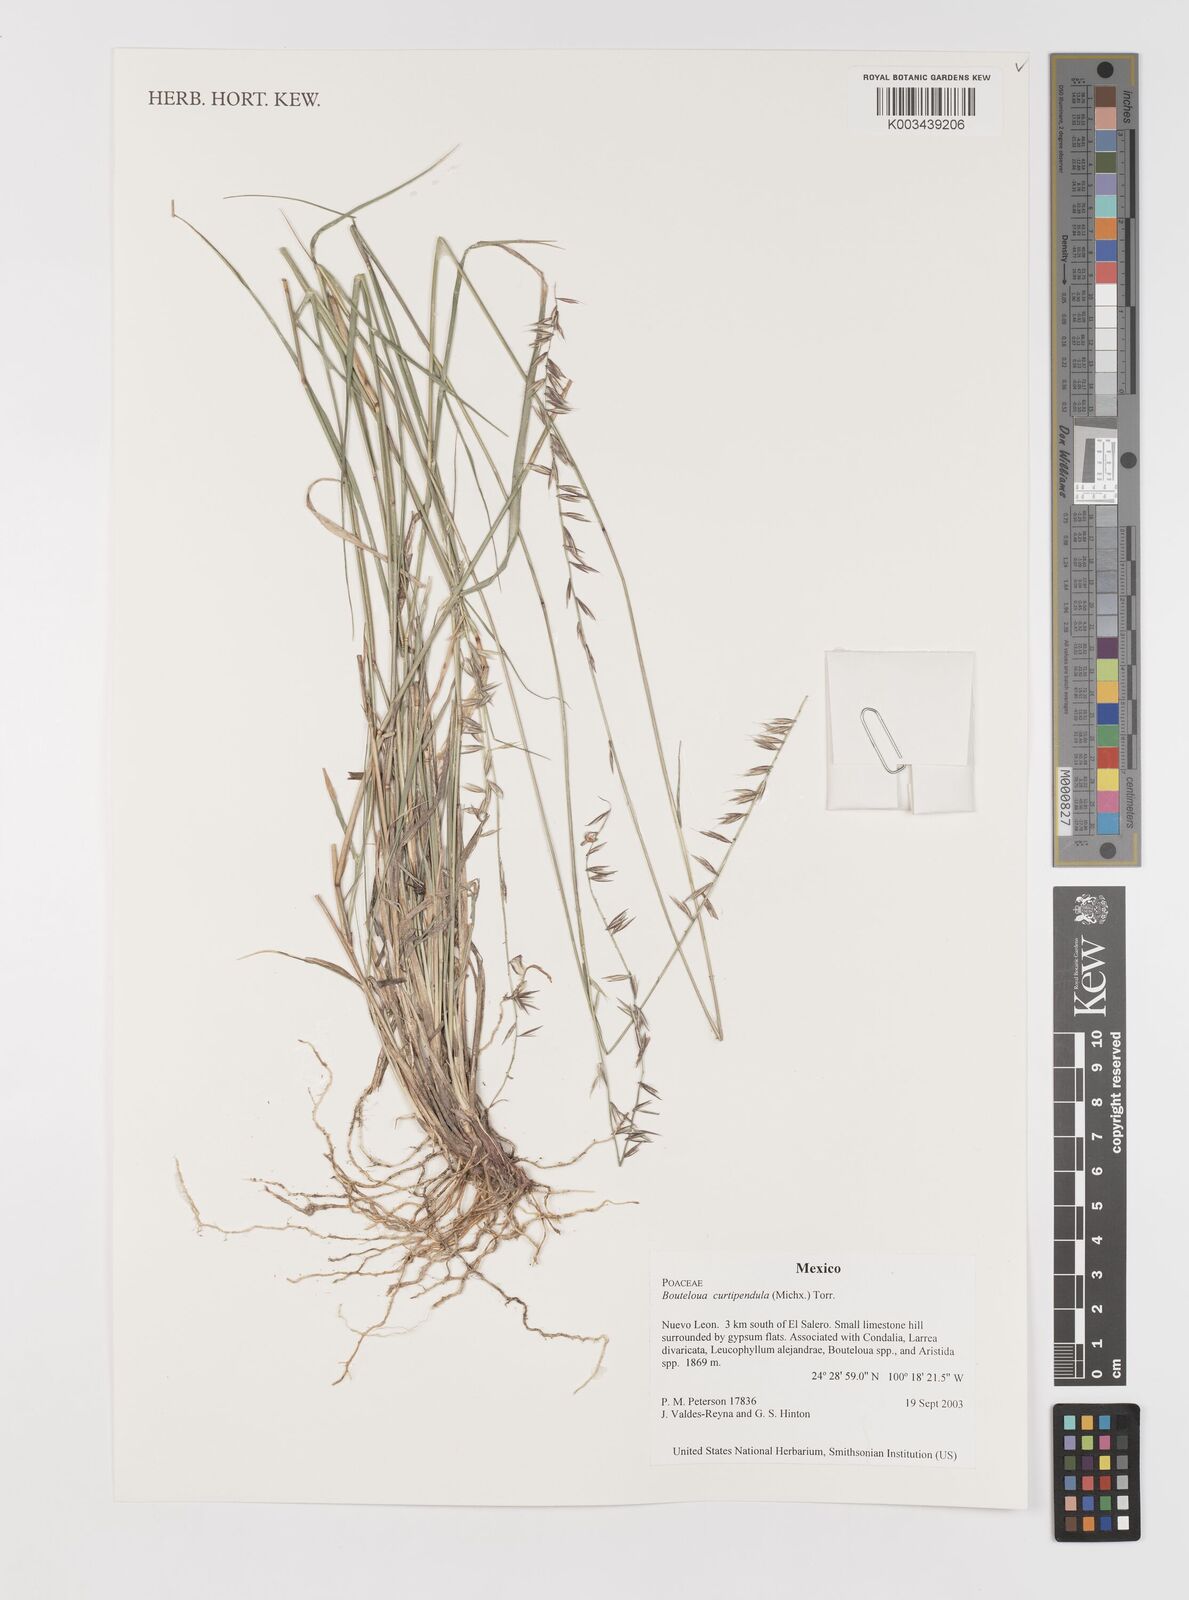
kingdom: Plantae
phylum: Tracheophyta
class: Liliopsida
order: Poales
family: Poaceae
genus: Bouteloua
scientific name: Bouteloua curtipendula
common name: Side-oats grama
